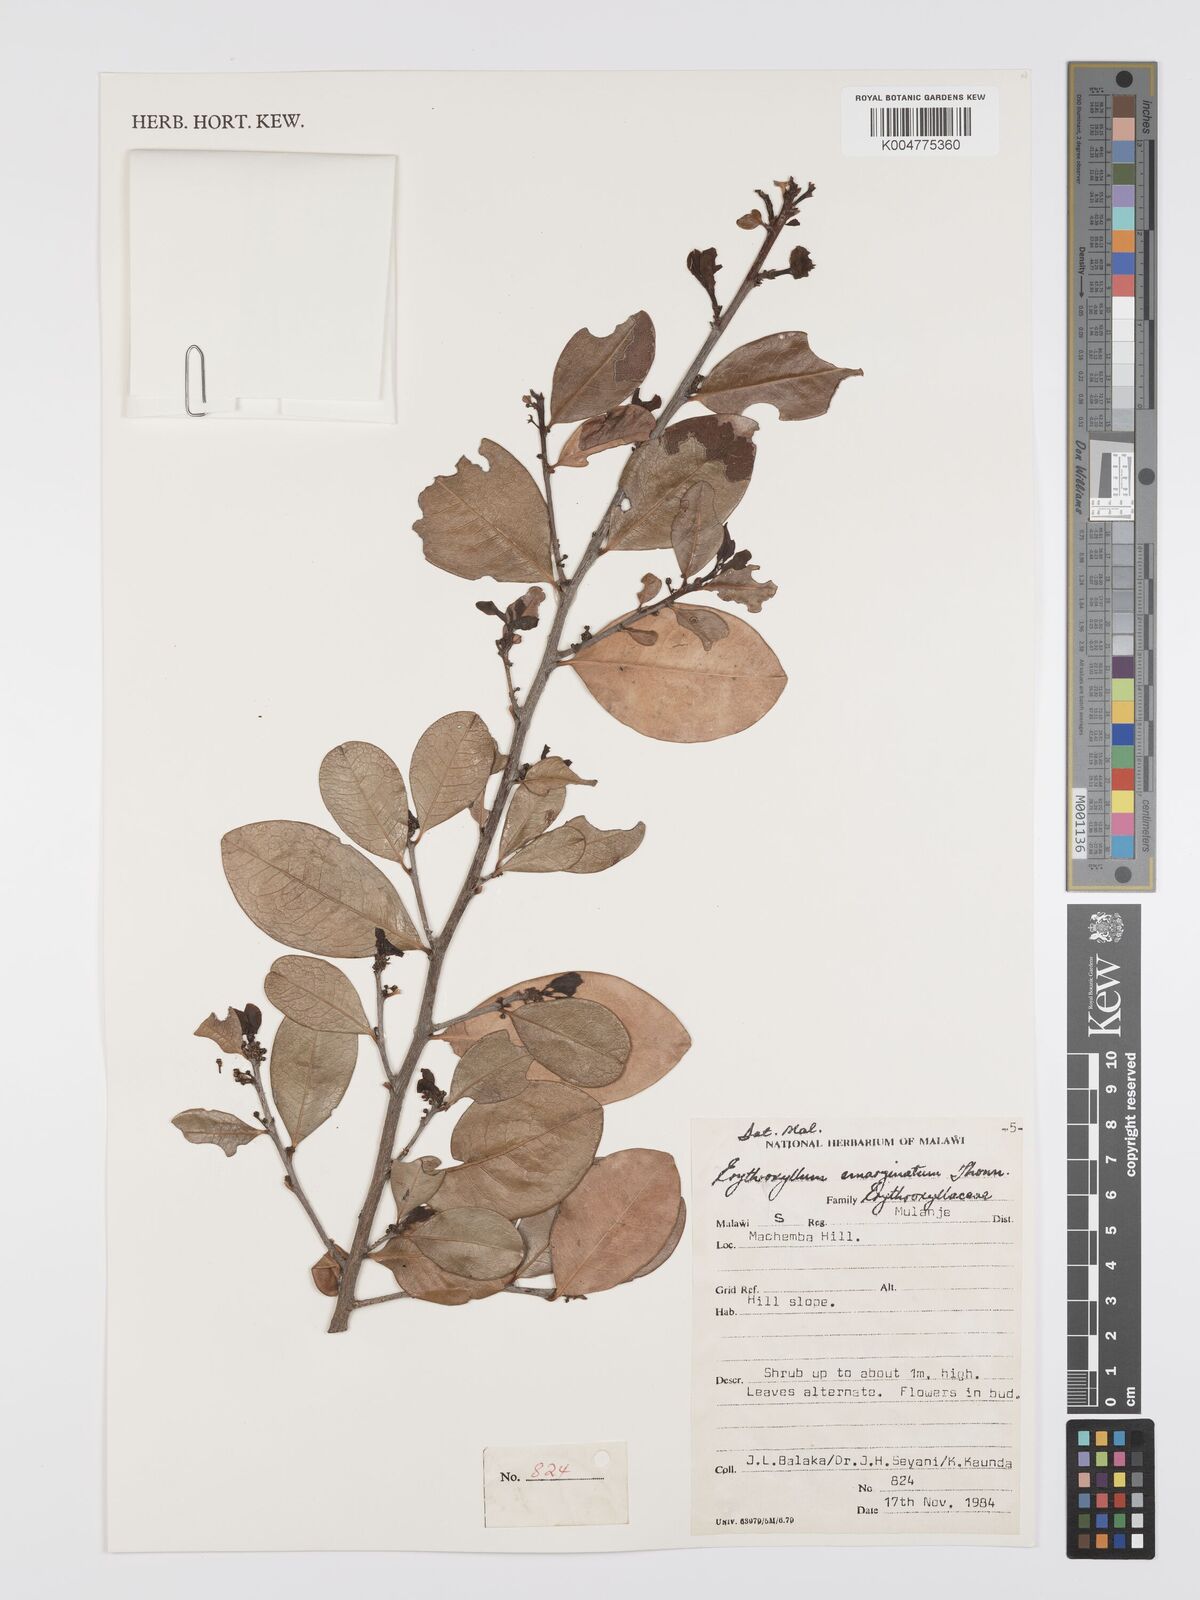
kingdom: Plantae
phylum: Tracheophyta
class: Magnoliopsida
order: Malpighiales
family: Erythroxylaceae
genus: Erythroxylum
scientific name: Erythroxylum emarginatum
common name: African coca-tree
